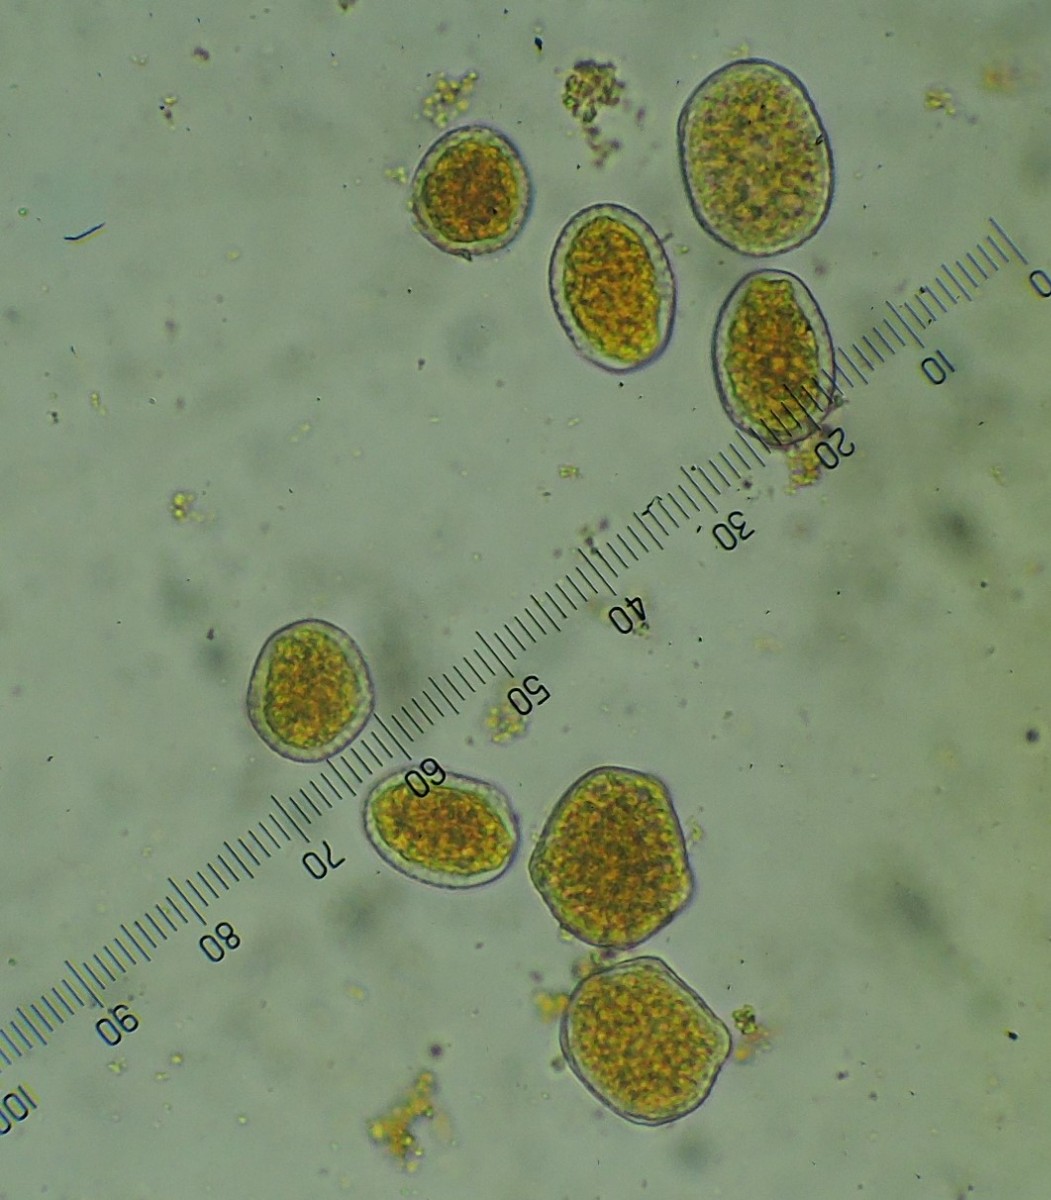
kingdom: Fungi
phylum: Basidiomycota
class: Pucciniomycetes
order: Pucciniales
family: Phragmidiaceae
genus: Phragmidium
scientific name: Phragmidium
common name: flercellerust
